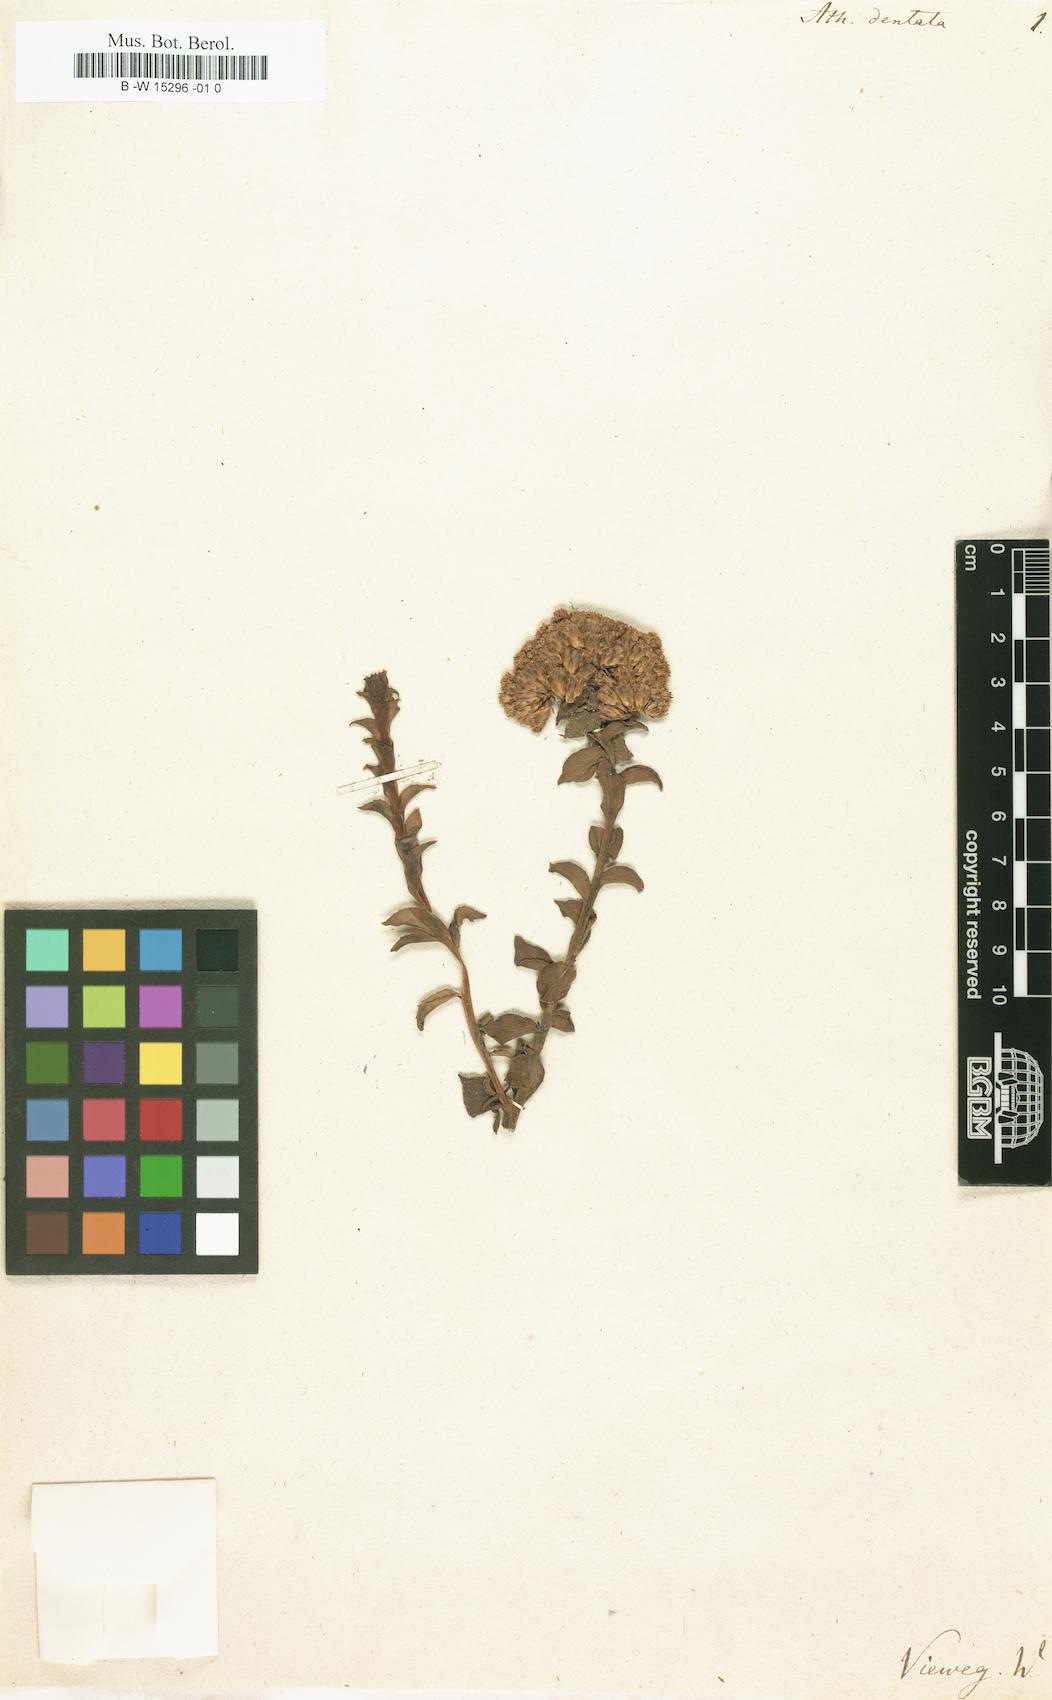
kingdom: Plantae
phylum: Tracheophyta
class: Magnoliopsida
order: Asterales
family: Asteraceae
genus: Athanasia
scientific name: Athanasia dentata
